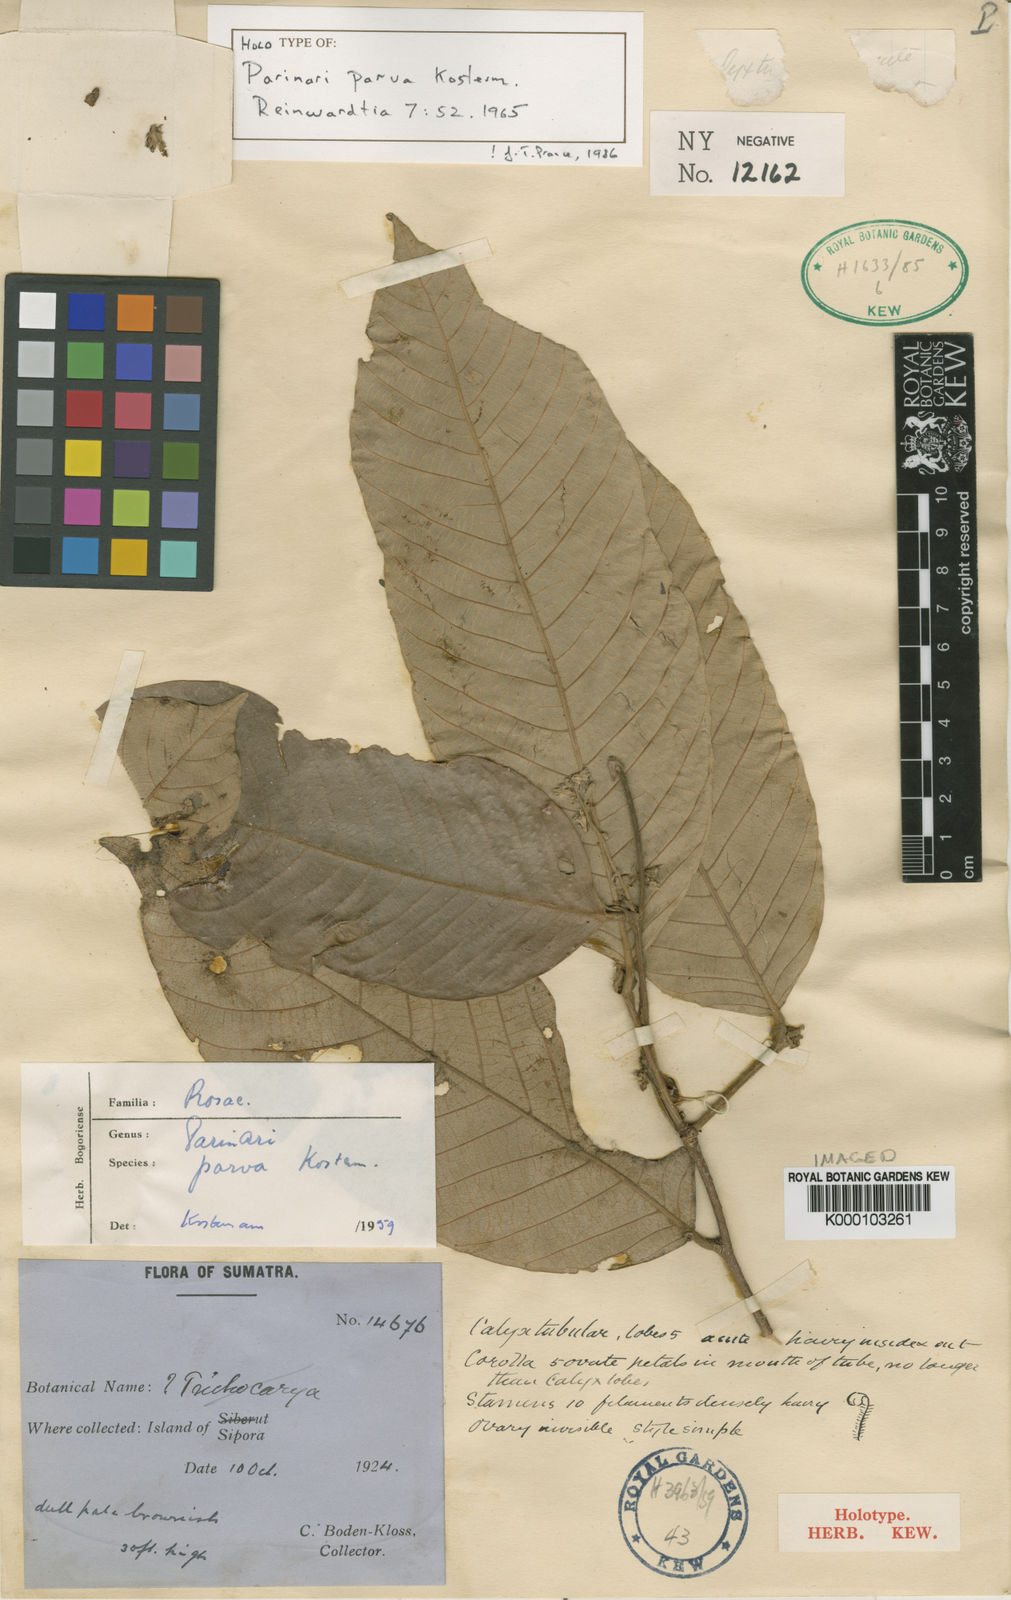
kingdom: Plantae
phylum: Tracheophyta
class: Magnoliopsida
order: Malpighiales
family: Chrysobalanaceae
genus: Parinari
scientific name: Parinari parva
